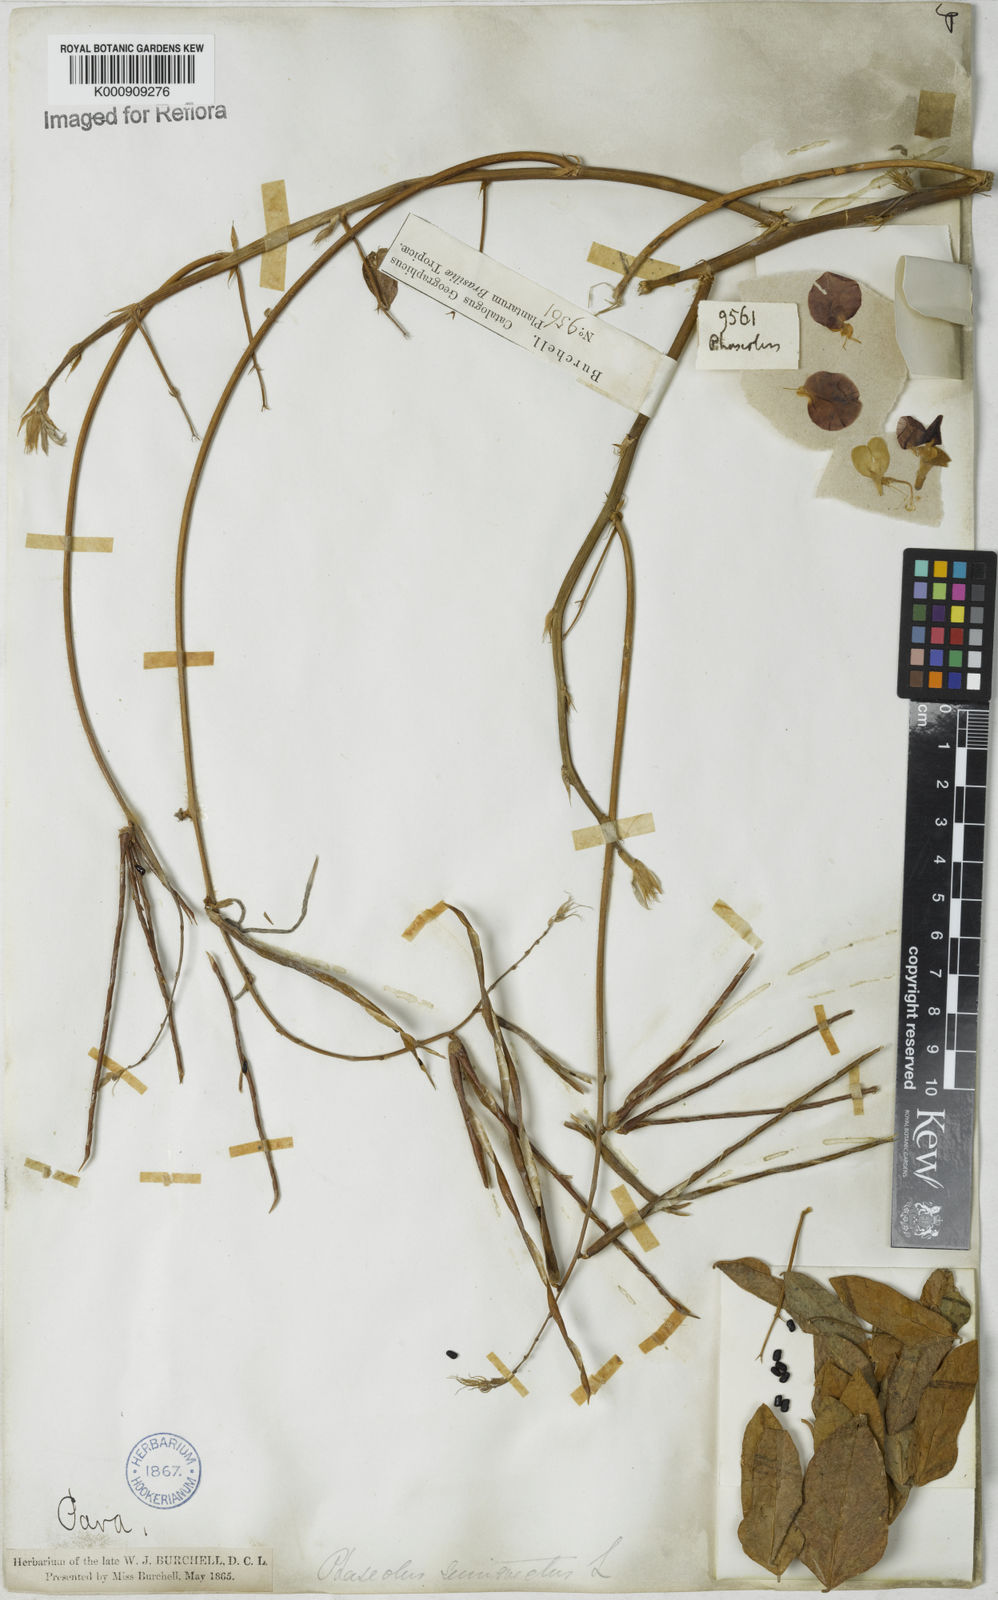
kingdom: Plantae
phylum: Tracheophyta
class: Magnoliopsida
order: Fabales
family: Fabaceae
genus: Macroptilium
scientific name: Macroptilium lathyroides
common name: Wild bushbean
